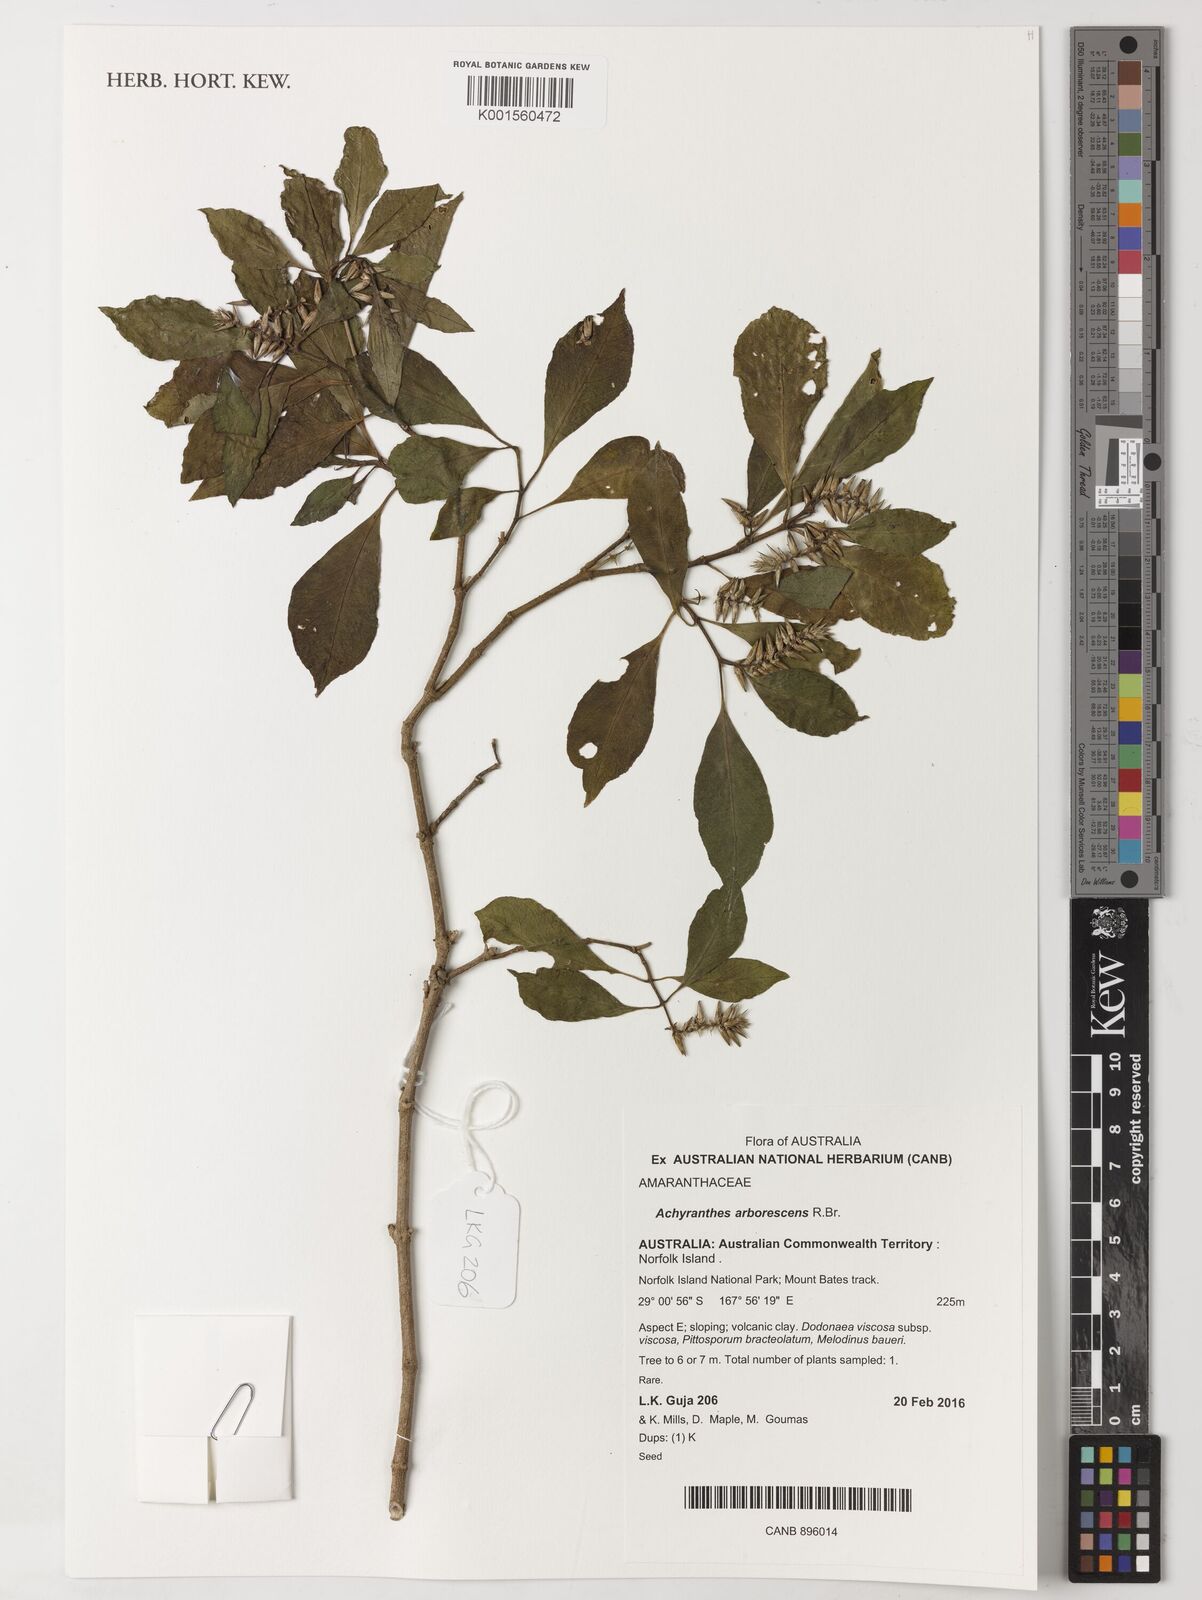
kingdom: Plantae
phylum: Tracheophyta
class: Magnoliopsida
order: Caryophyllales
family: Amaranthaceae
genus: Achyranthes
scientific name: Achyranthes arborescens
